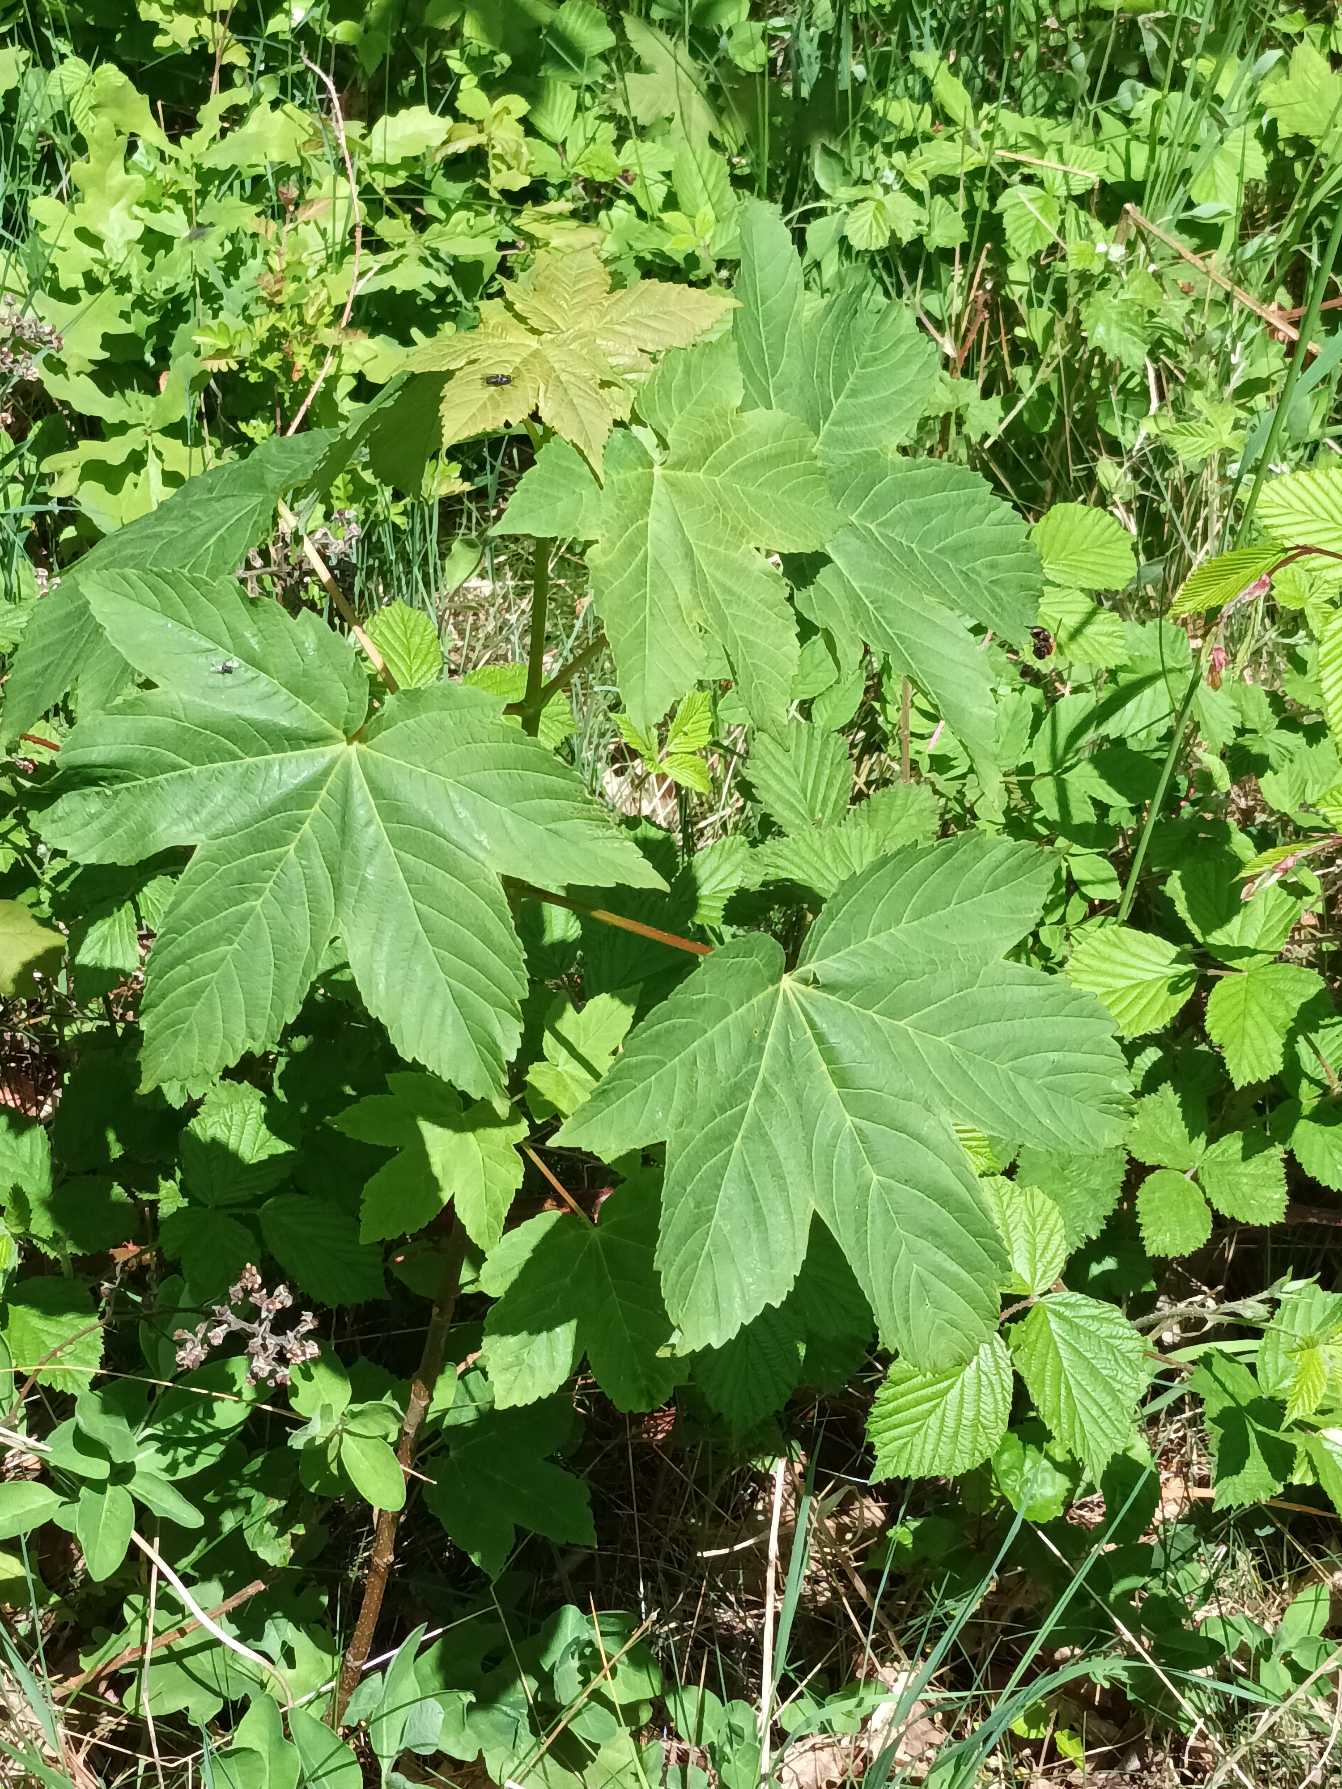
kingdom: Plantae
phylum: Tracheophyta
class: Magnoliopsida
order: Sapindales
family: Sapindaceae
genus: Acer
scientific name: Acer pseudoplatanus
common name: Ahorn
